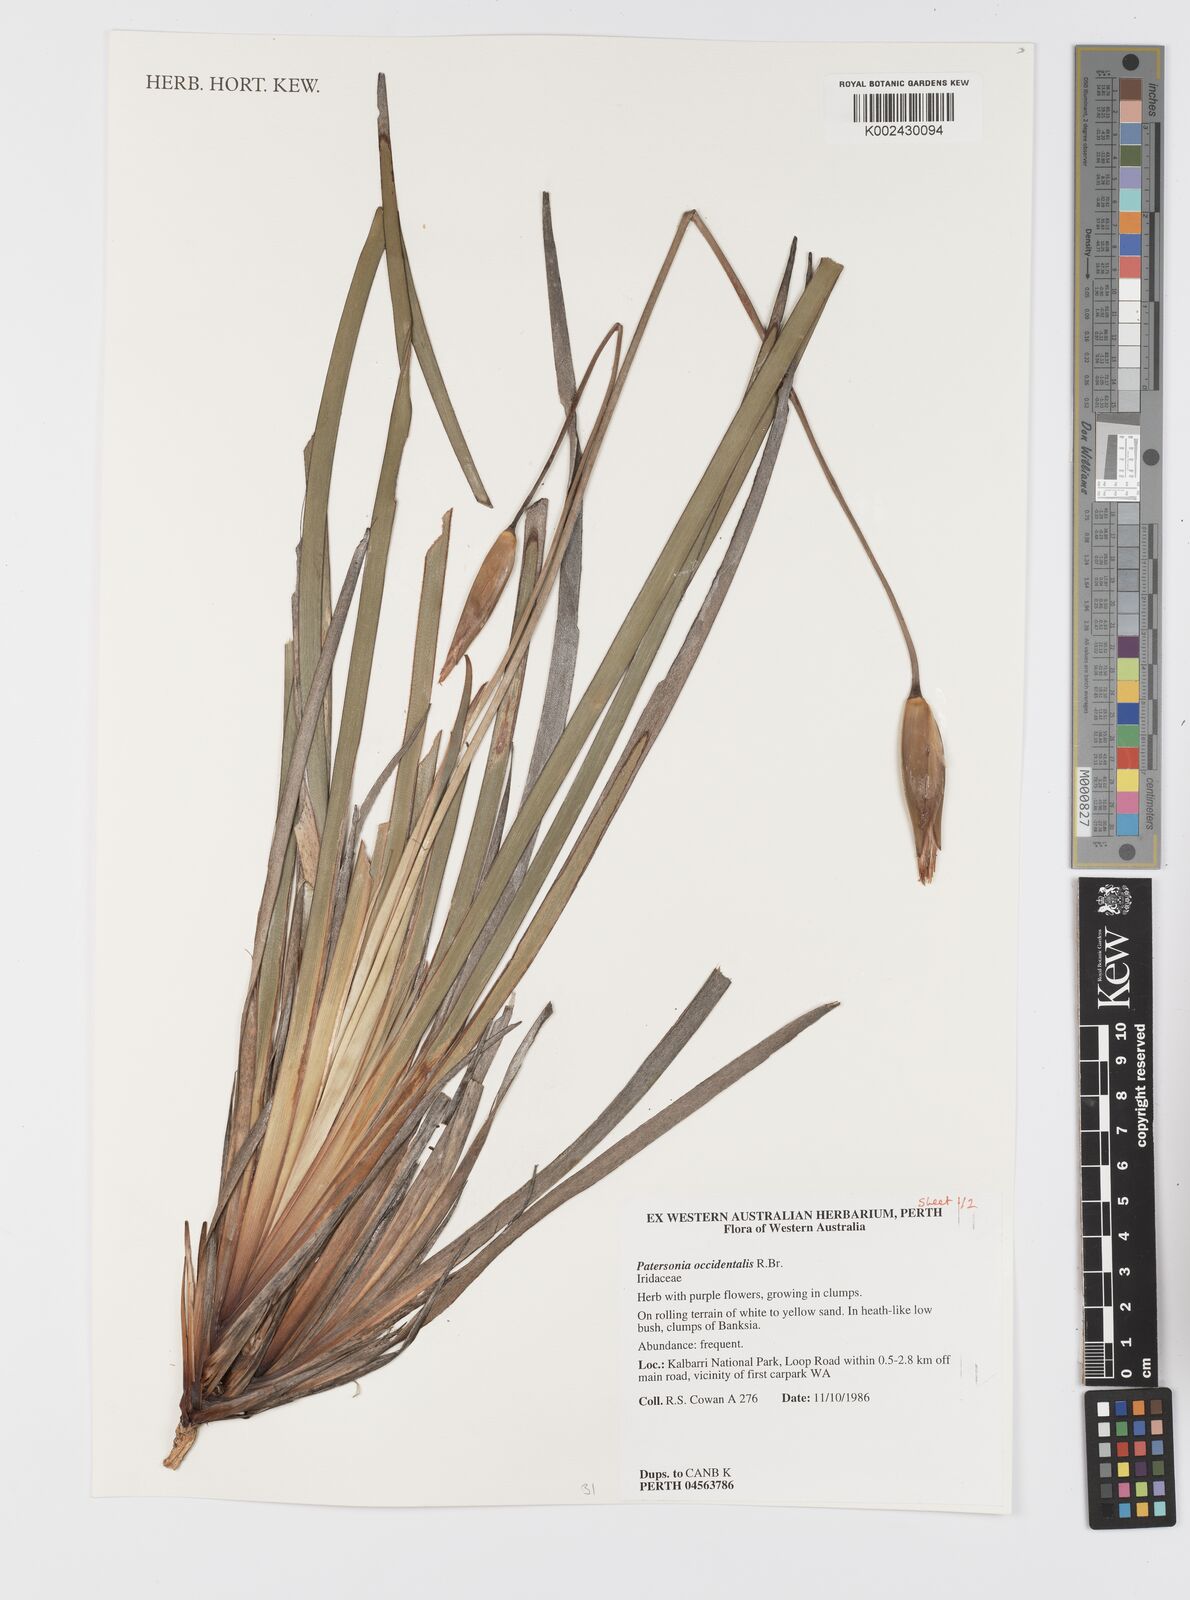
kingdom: Plantae
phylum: Tracheophyta
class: Liliopsida
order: Asparagales
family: Iridaceae
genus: Patersonia
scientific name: Patersonia occidentalis
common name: Long purple-flag
